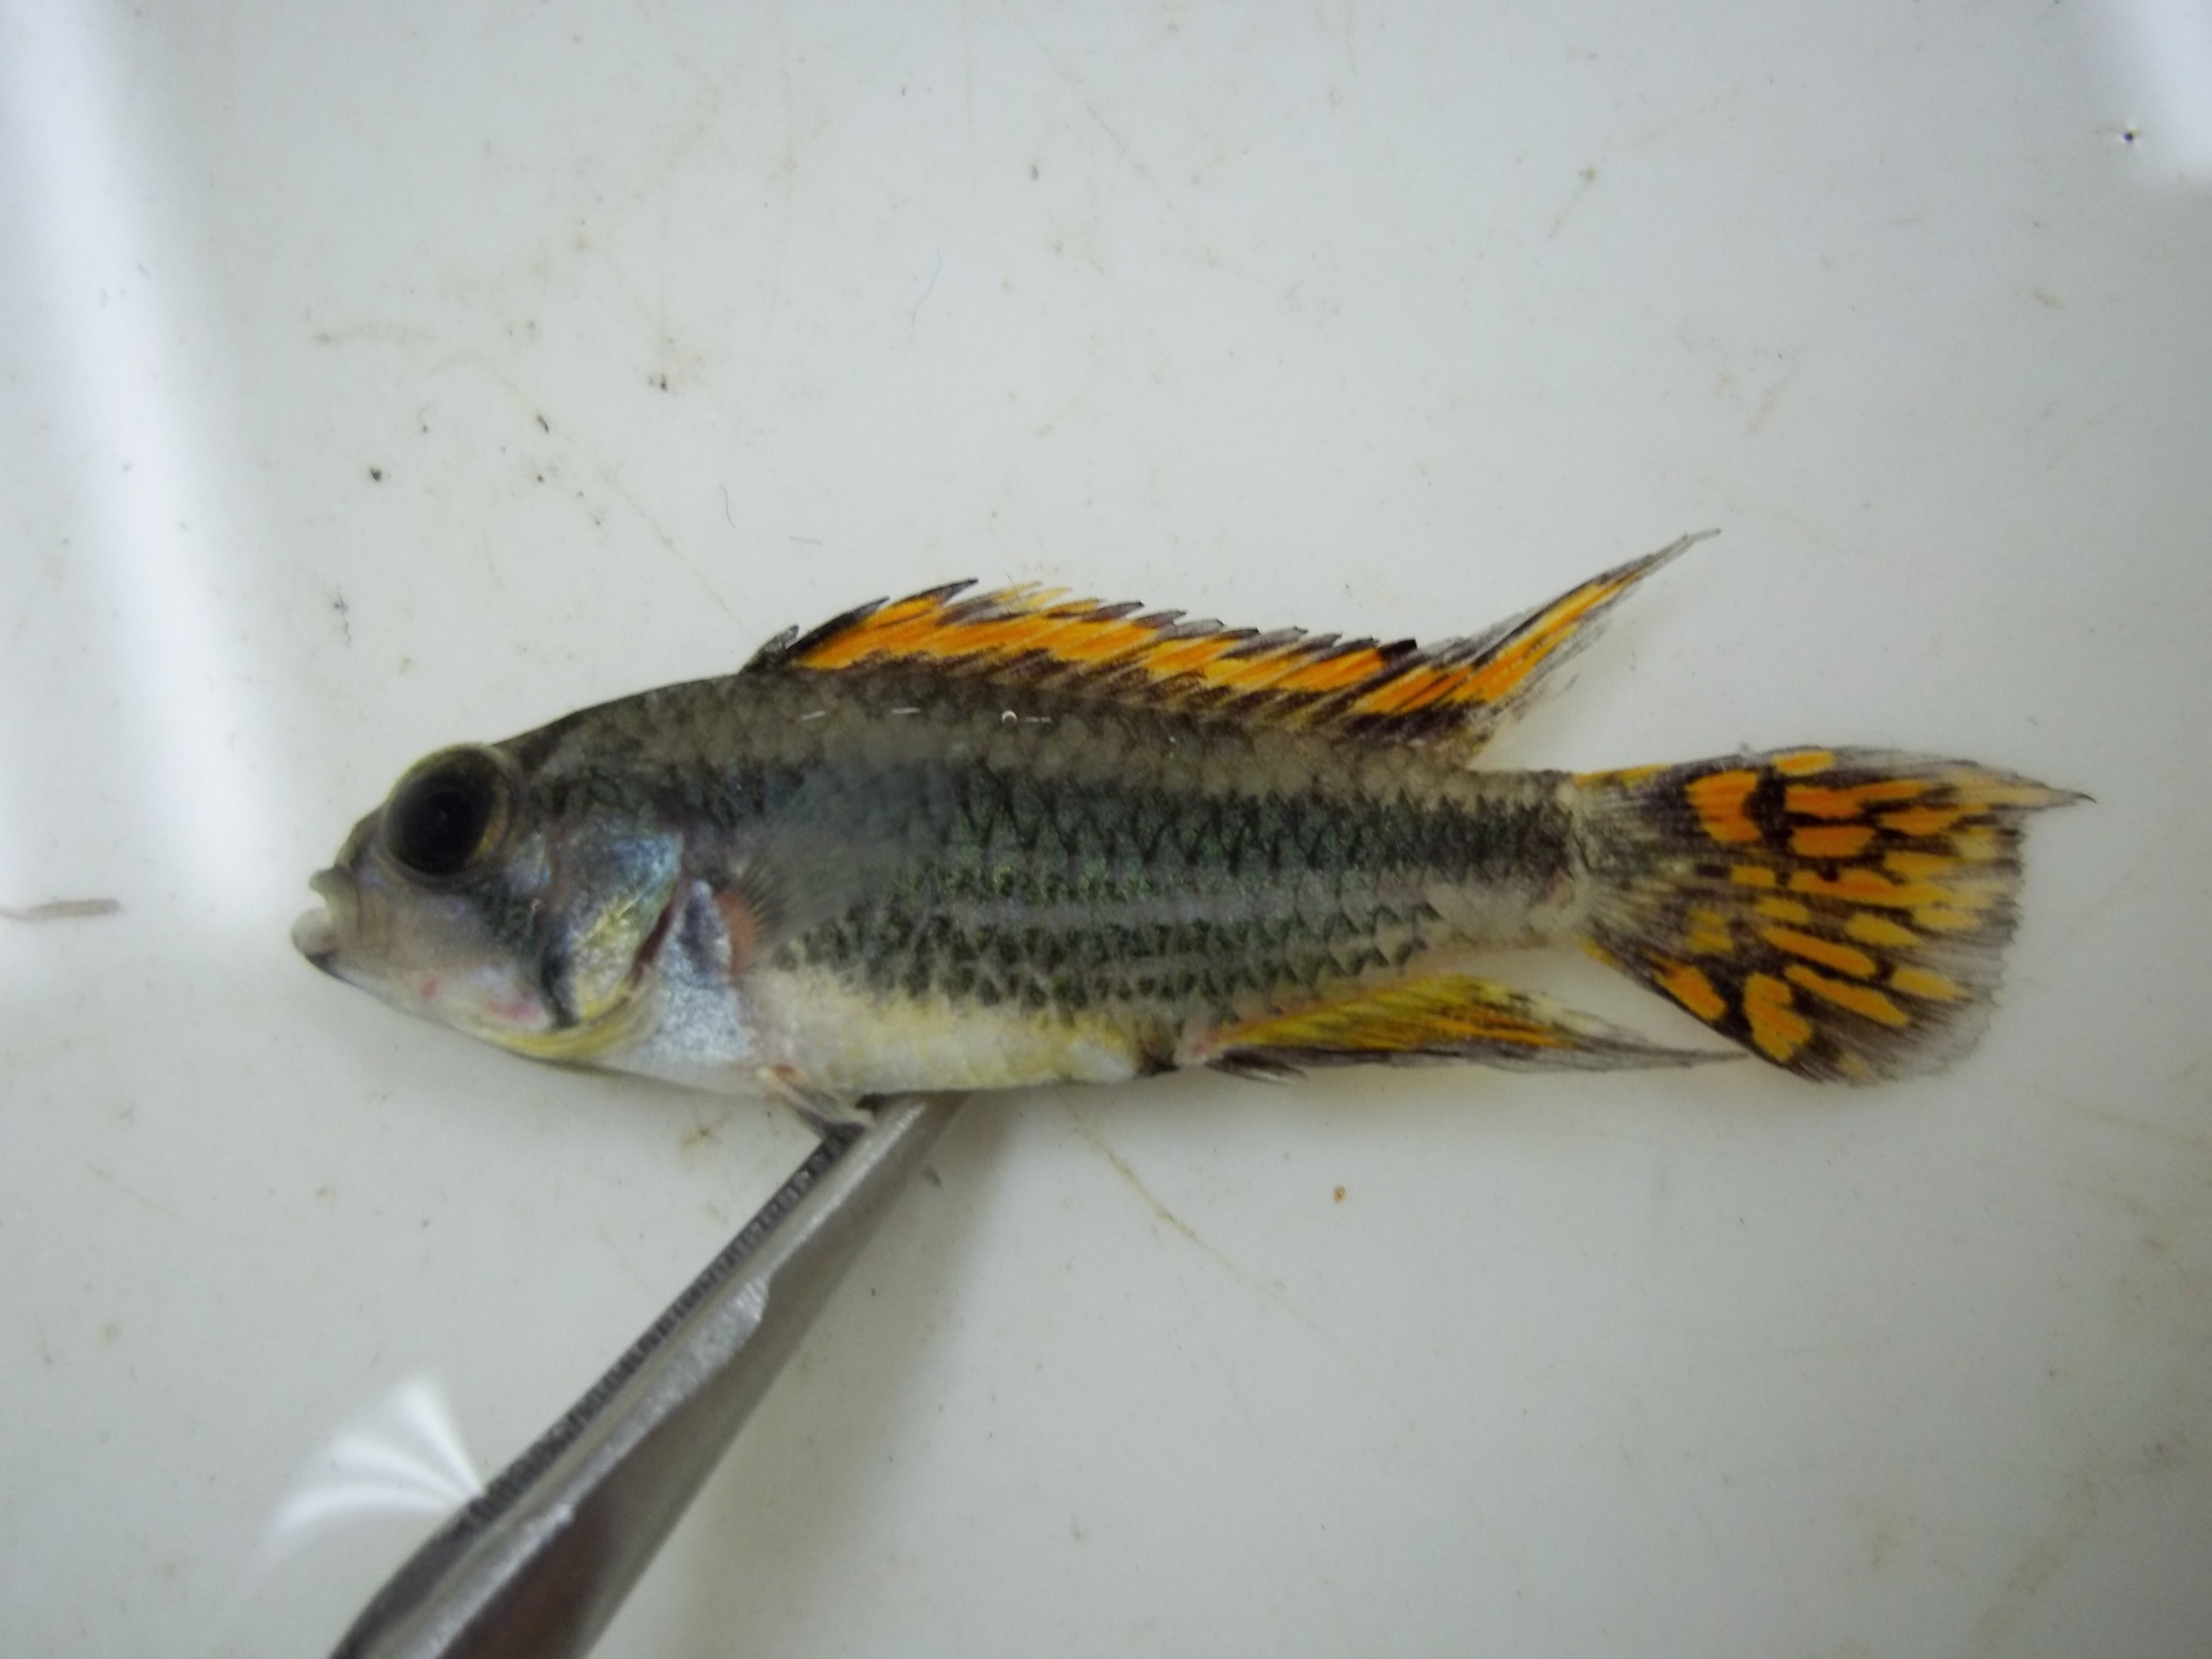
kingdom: Animalia
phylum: Chordata
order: Perciformes
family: Cichlidae
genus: Apistogramma
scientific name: Apistogramma cacatuoides
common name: Cockatoo dwarf cichlid
